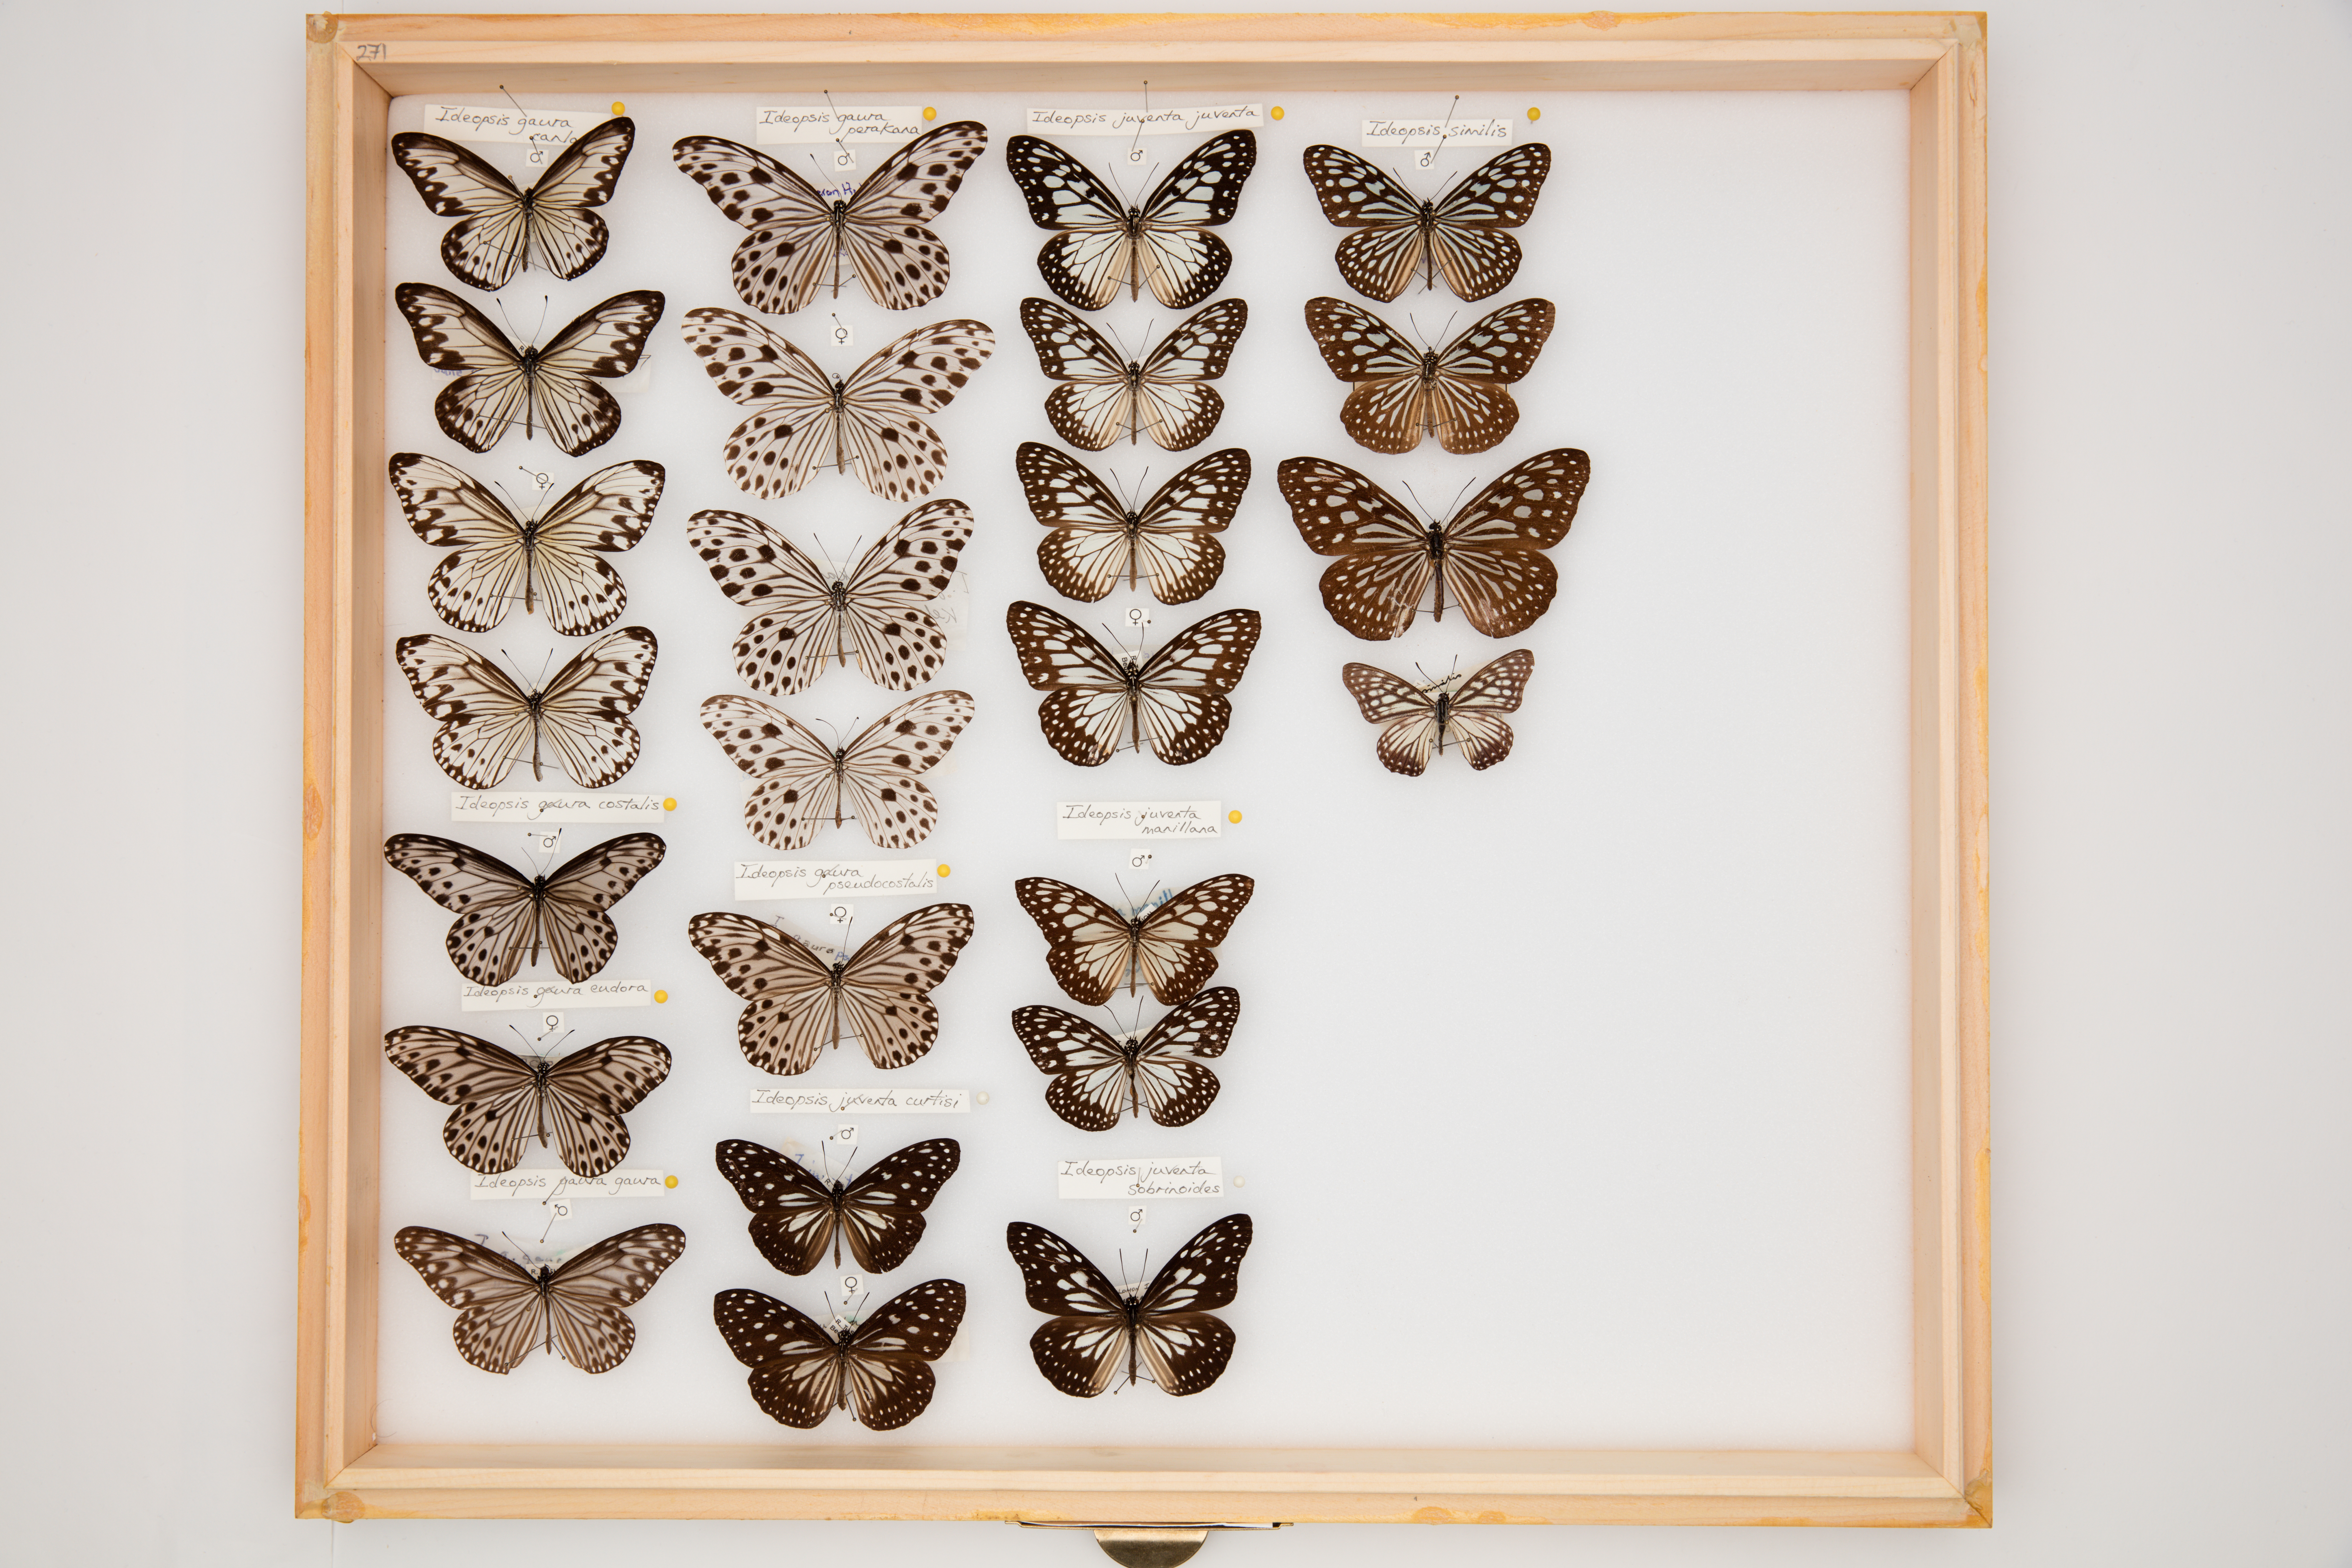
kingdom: Animalia
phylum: Arthropoda
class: Insecta
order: Lepidoptera
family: Nymphalidae
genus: Ideopsis
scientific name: Ideopsis gaura
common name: Smaller wood nymph
